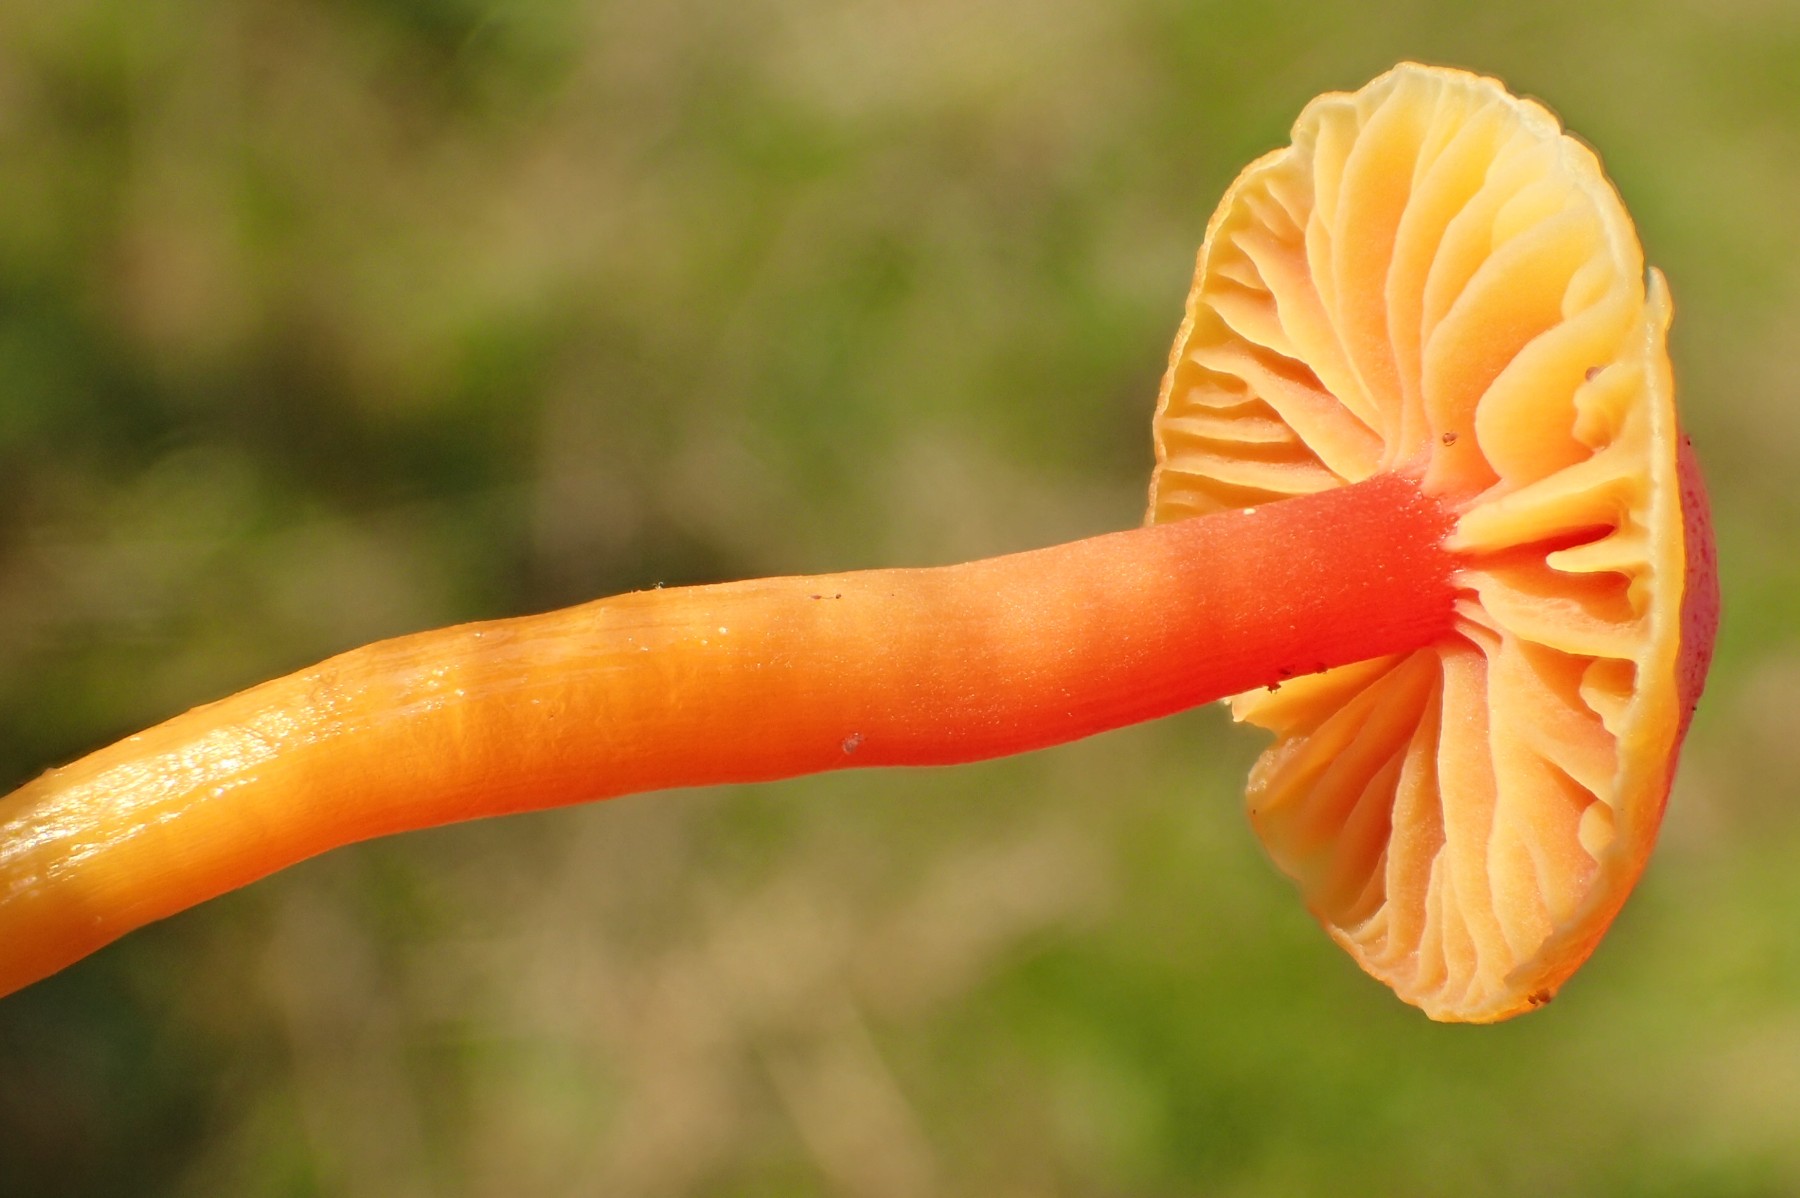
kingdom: Fungi
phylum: Basidiomycota
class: Agaricomycetes
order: Agaricales
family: Hygrophoraceae
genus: Hygrocybe
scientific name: Hygrocybe mucronella
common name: bitter vokshat
